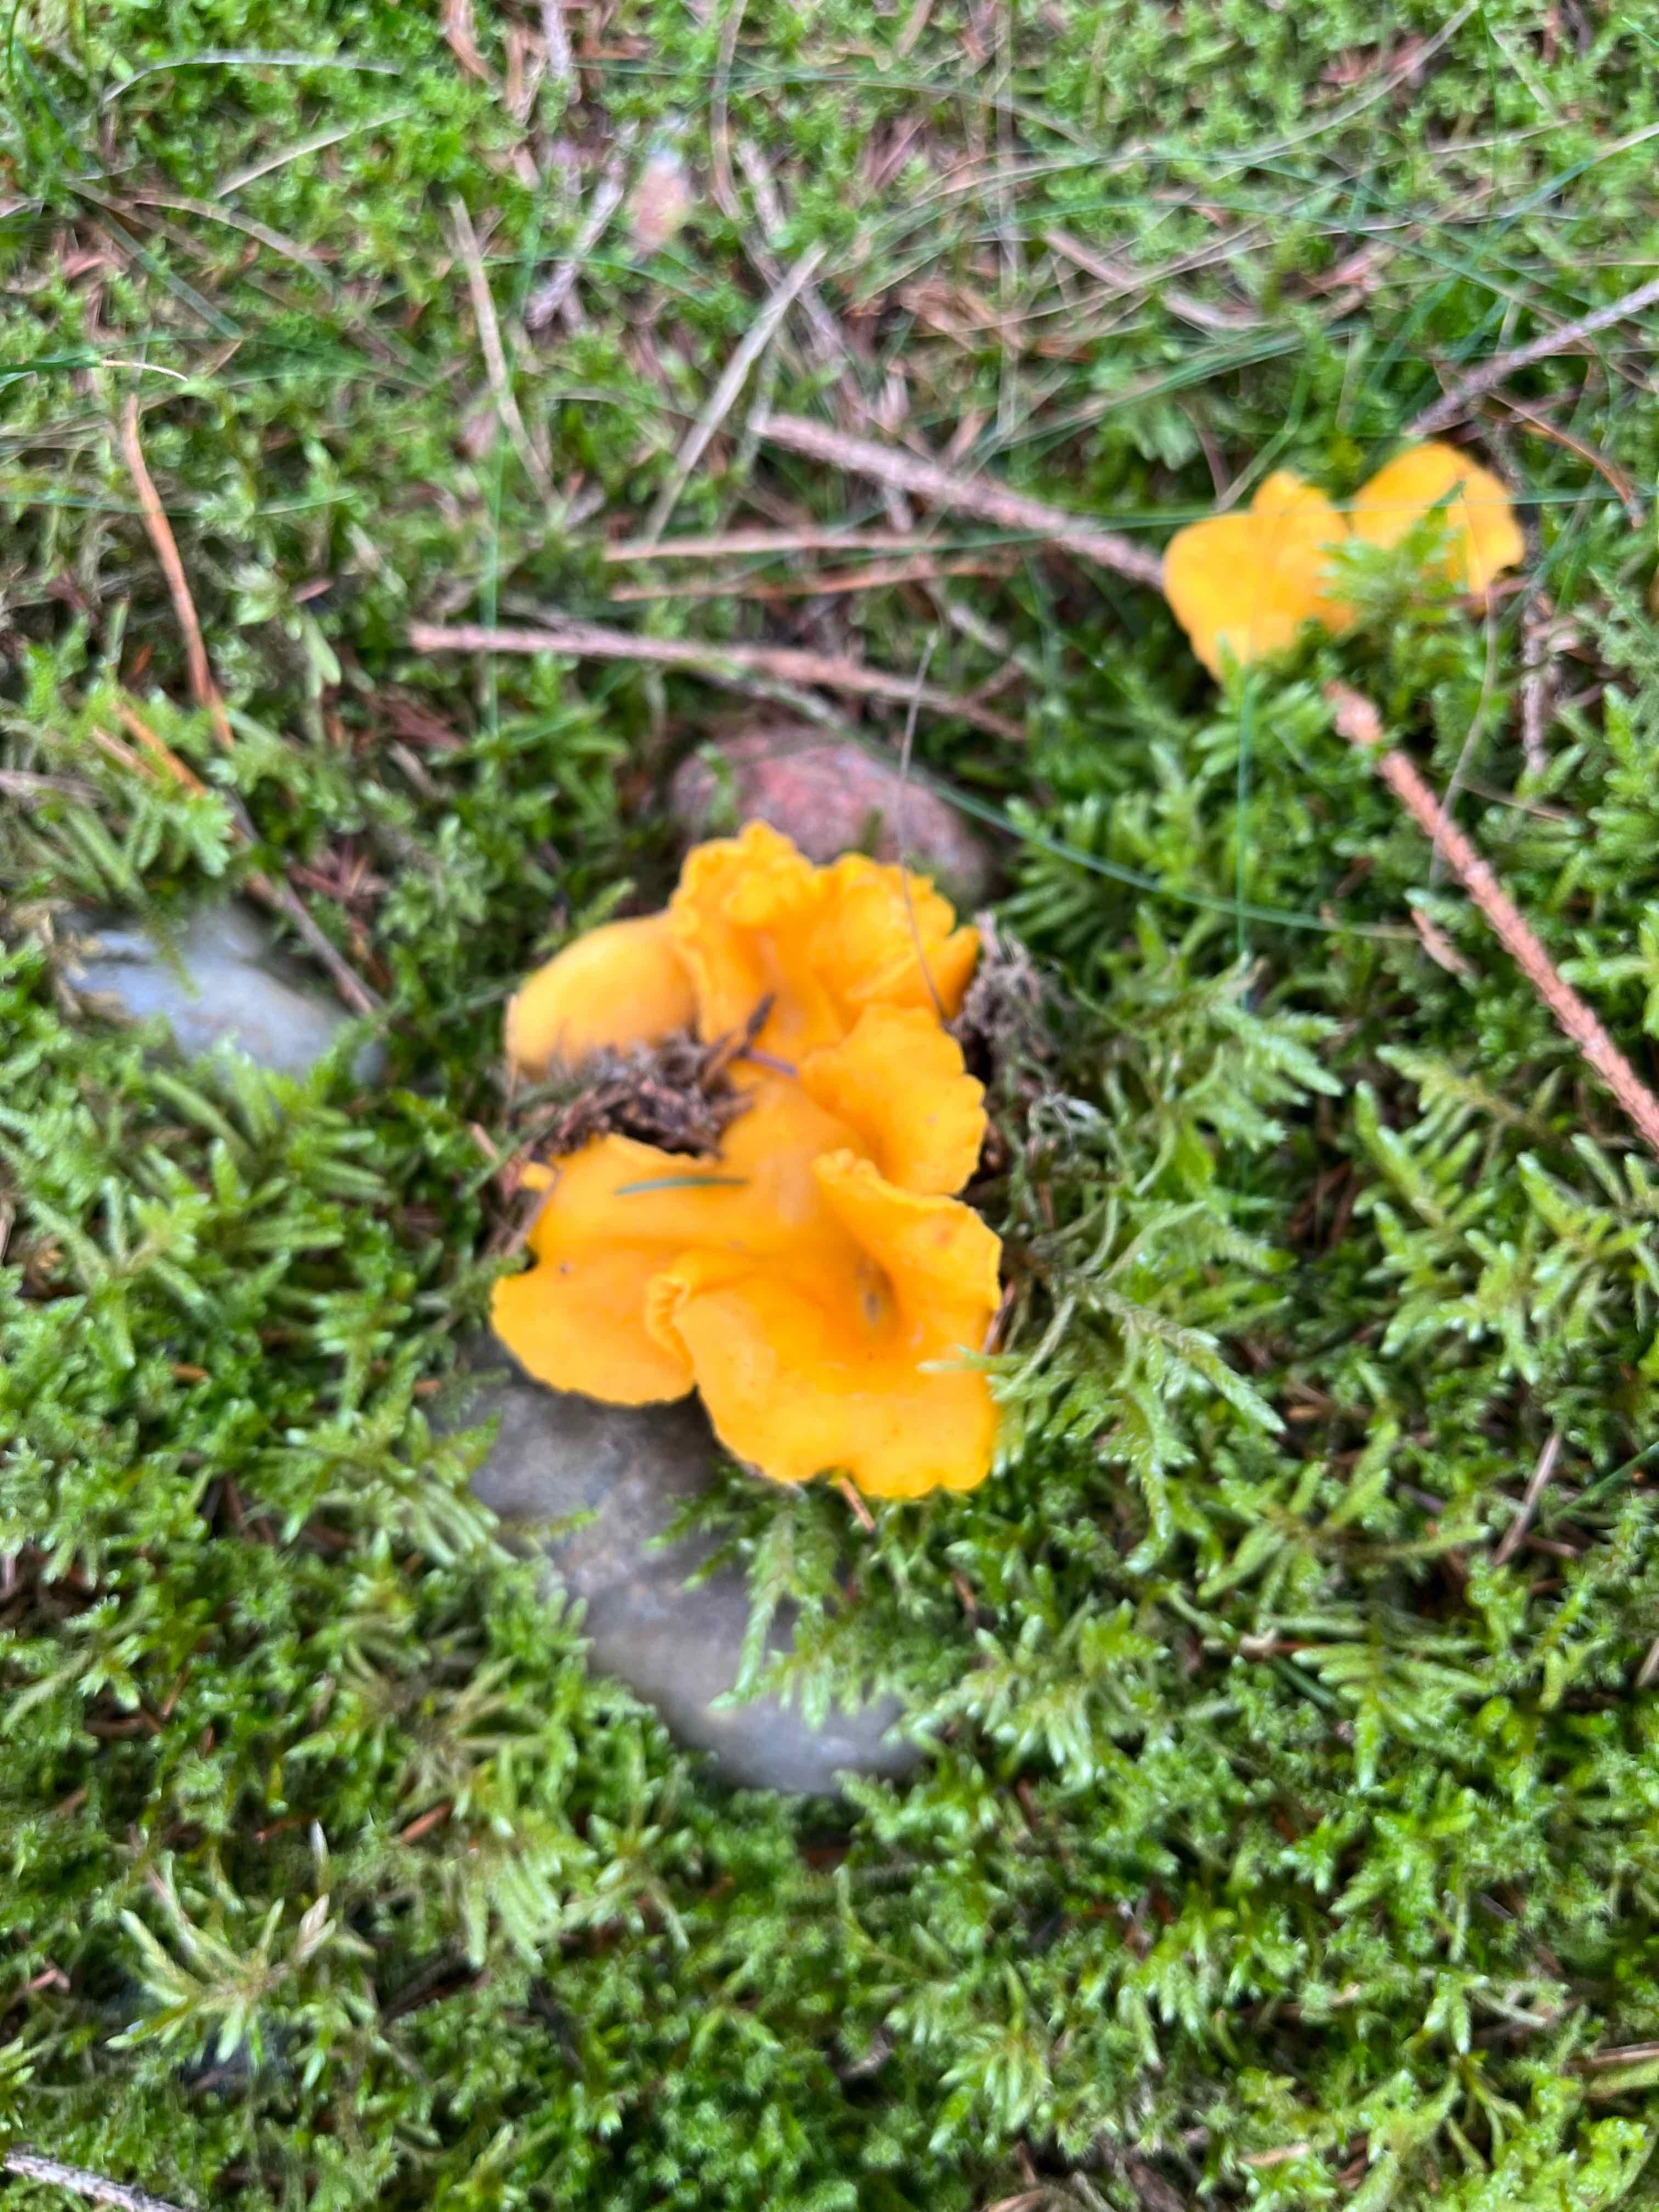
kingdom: Fungi
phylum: Basidiomycota
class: Agaricomycetes
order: Cantharellales
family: Hydnaceae
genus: Cantharellus
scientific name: Cantharellus cibarius
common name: almindelig kantarel
